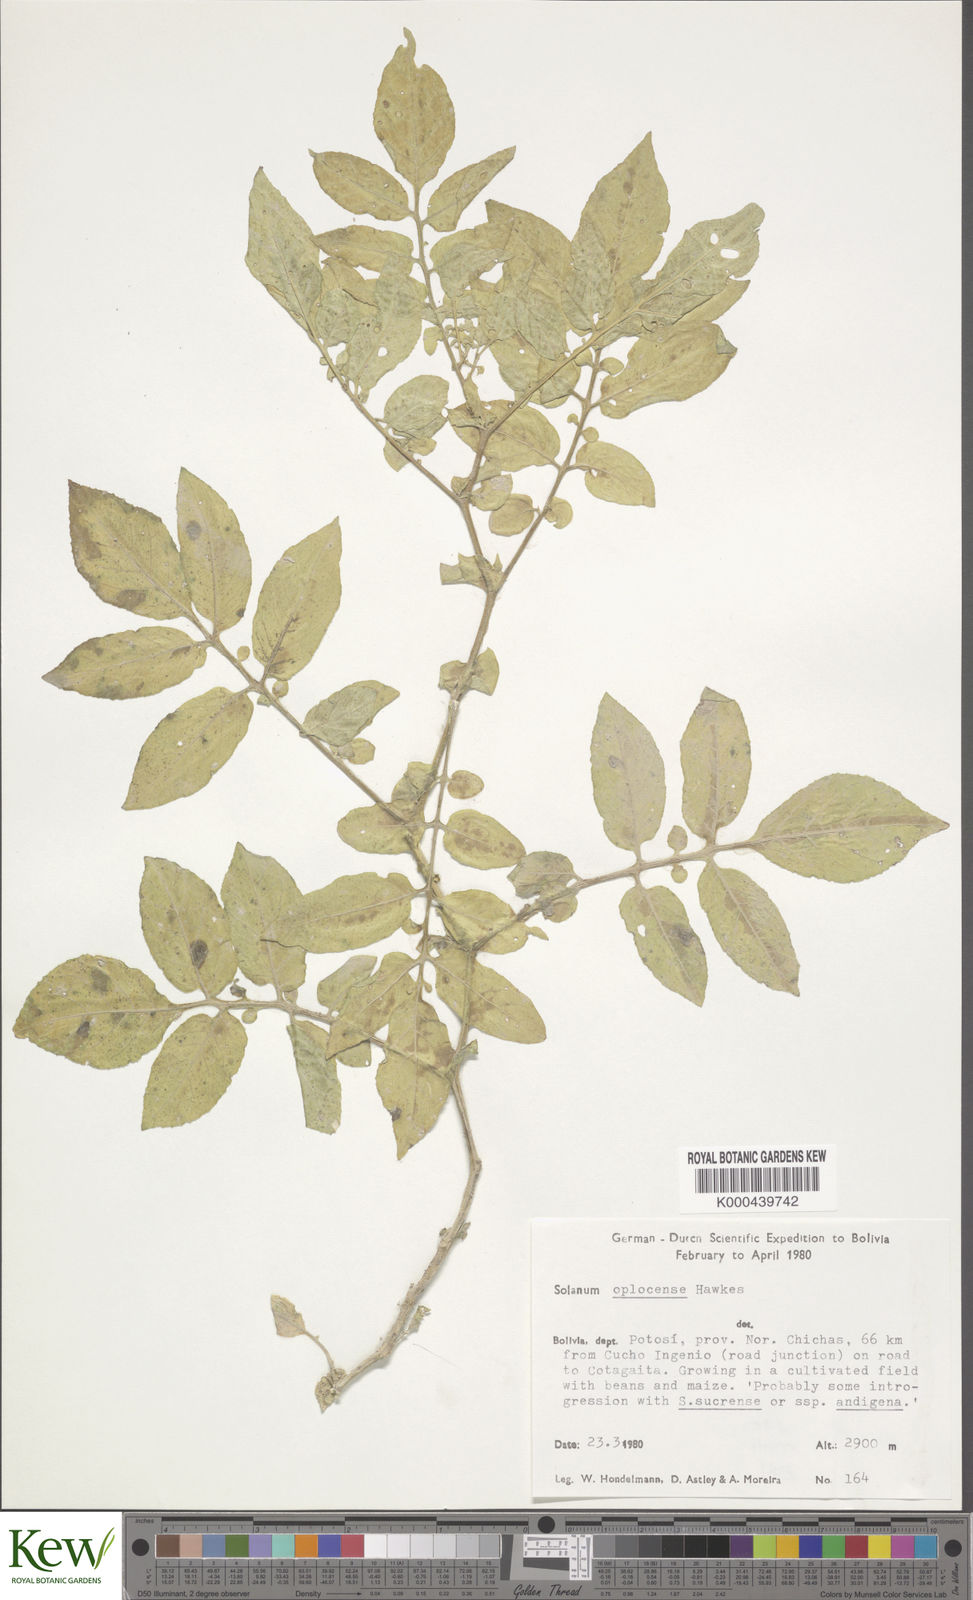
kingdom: Plantae
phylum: Tracheophyta
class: Magnoliopsida
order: Solanales
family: Solanaceae
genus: Solanum
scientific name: Solanum brevicaule
